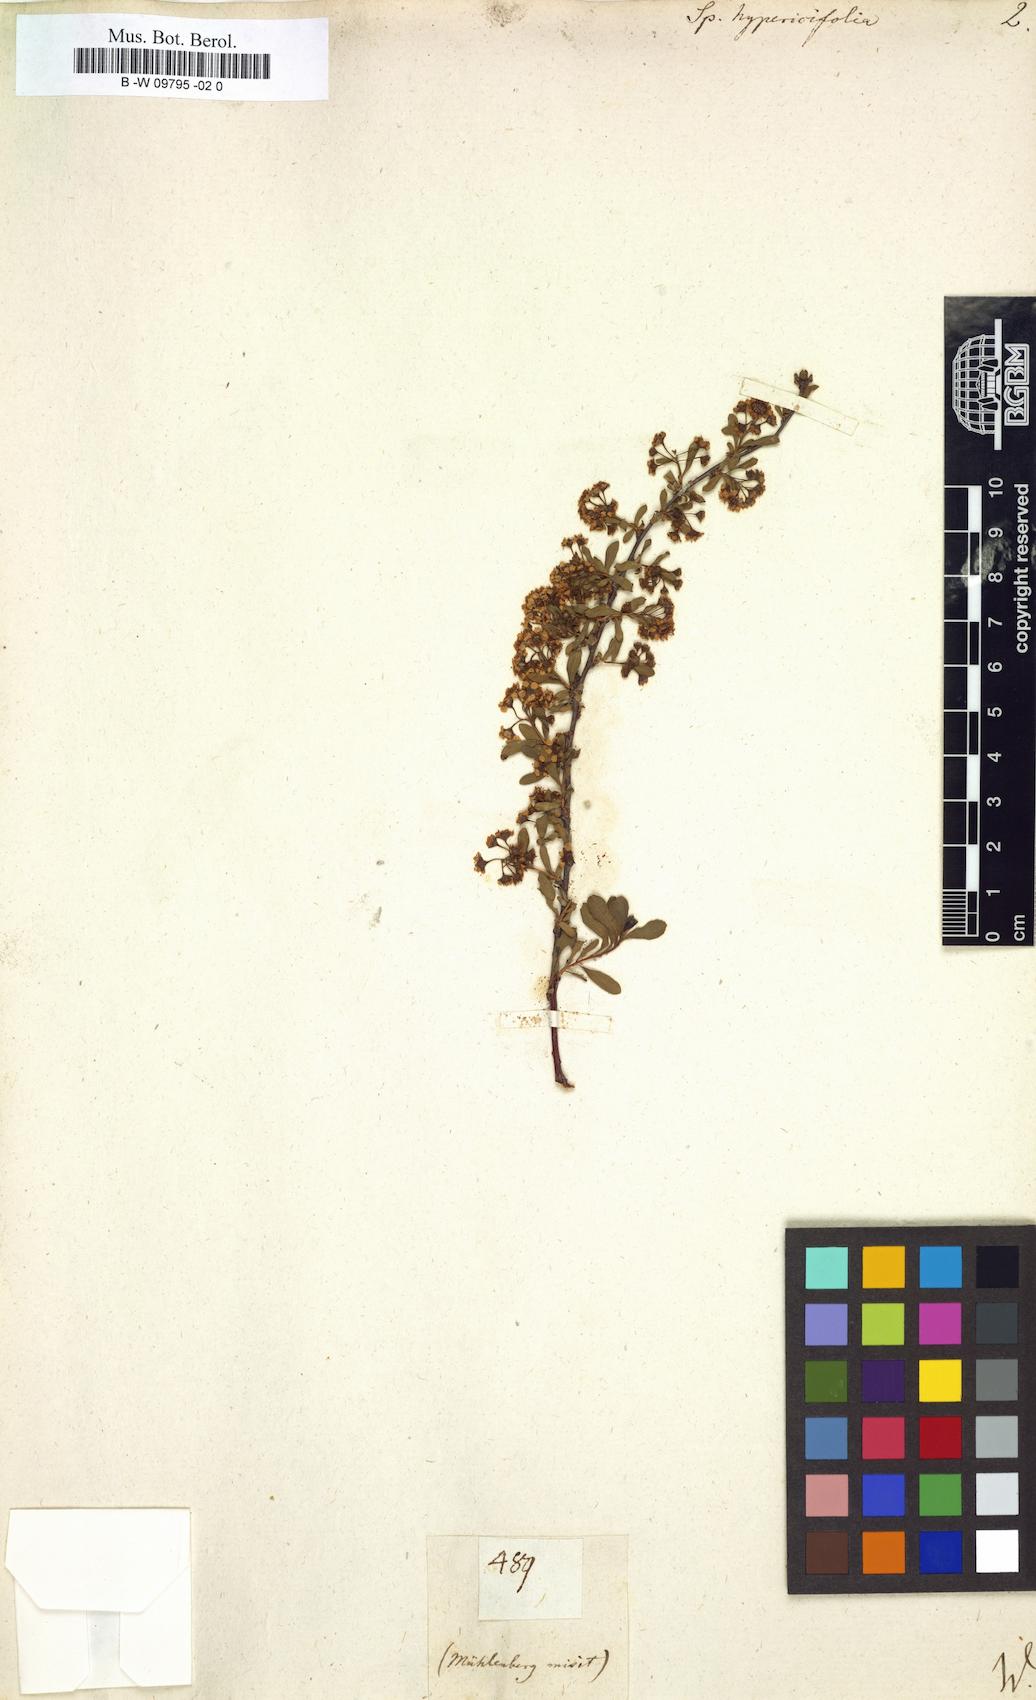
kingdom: Plantae
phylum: Tracheophyta
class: Magnoliopsida
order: Rosales
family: Rosaceae
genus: Spiraea
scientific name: Spiraea hypericifolia
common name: Iberian spirea
